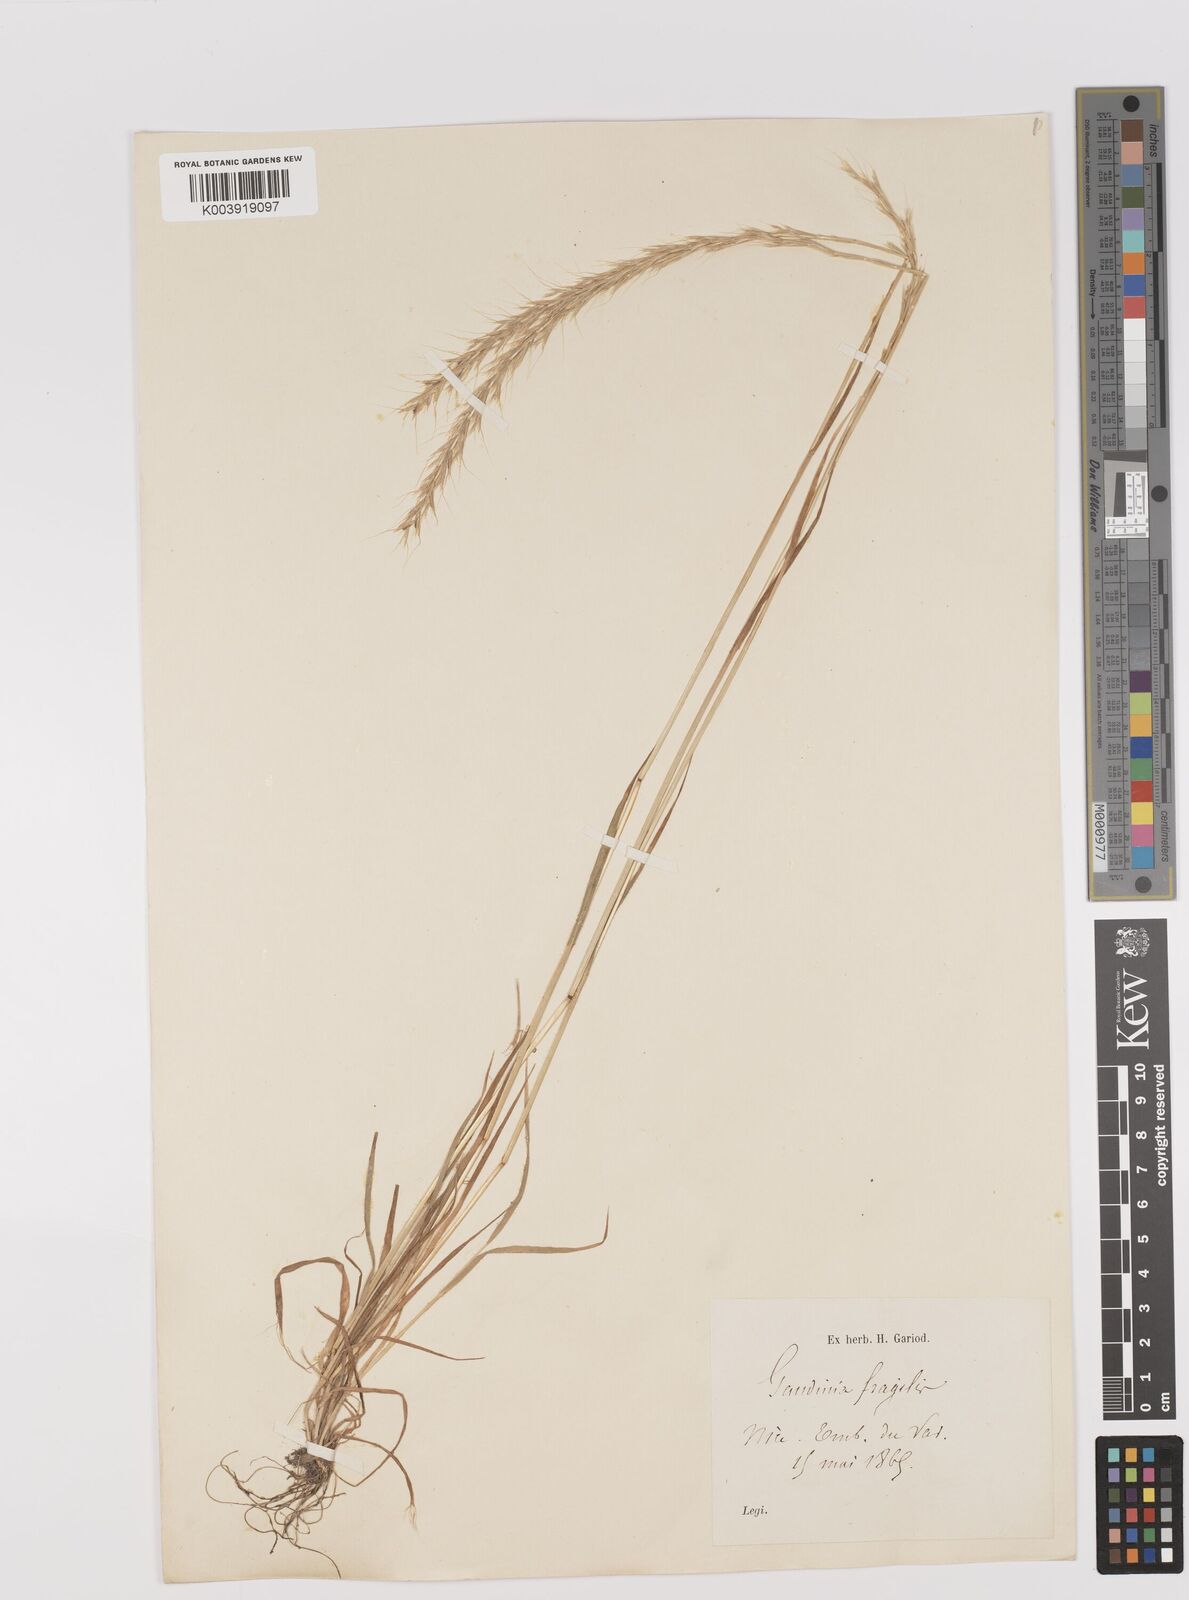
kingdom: Plantae
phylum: Tracheophyta
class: Liliopsida
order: Poales
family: Poaceae
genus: Gaudinia
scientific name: Gaudinia fragilis
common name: French oat-grass
